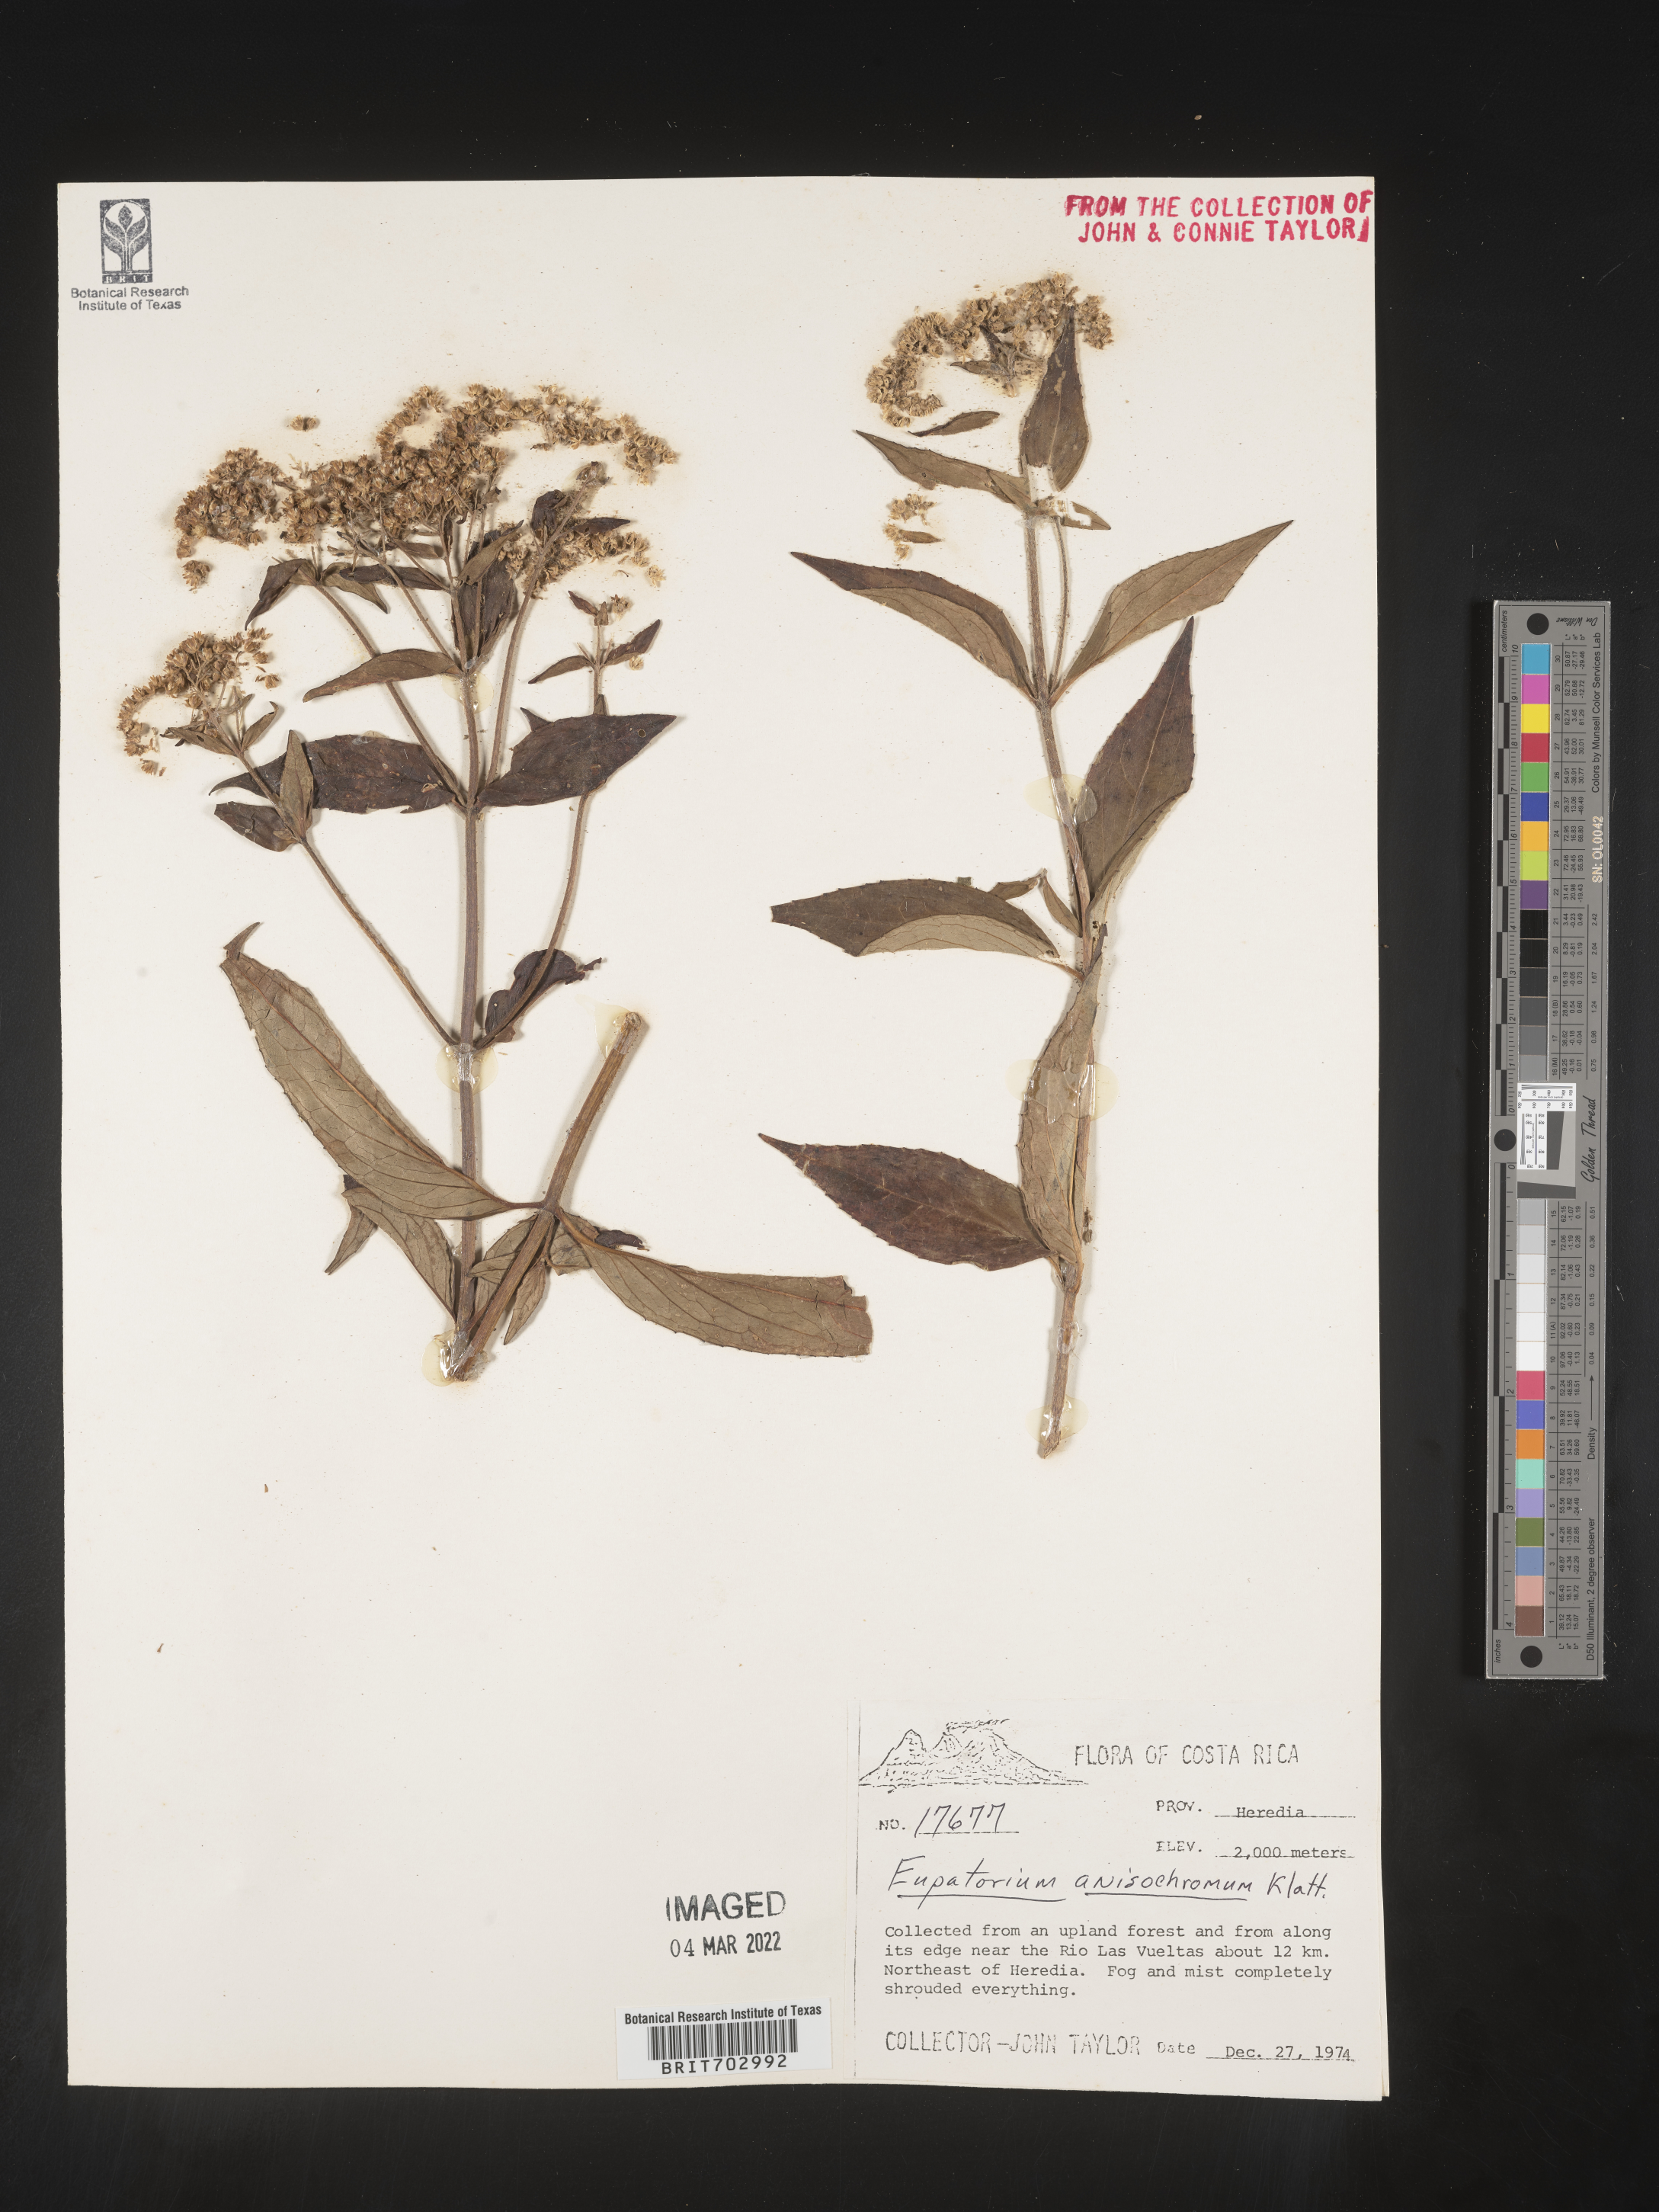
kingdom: Plantae
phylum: Tracheophyta
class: Magnoliopsida
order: Asterales
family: Asteraceae
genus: Eupatorium
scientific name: Eupatorium
